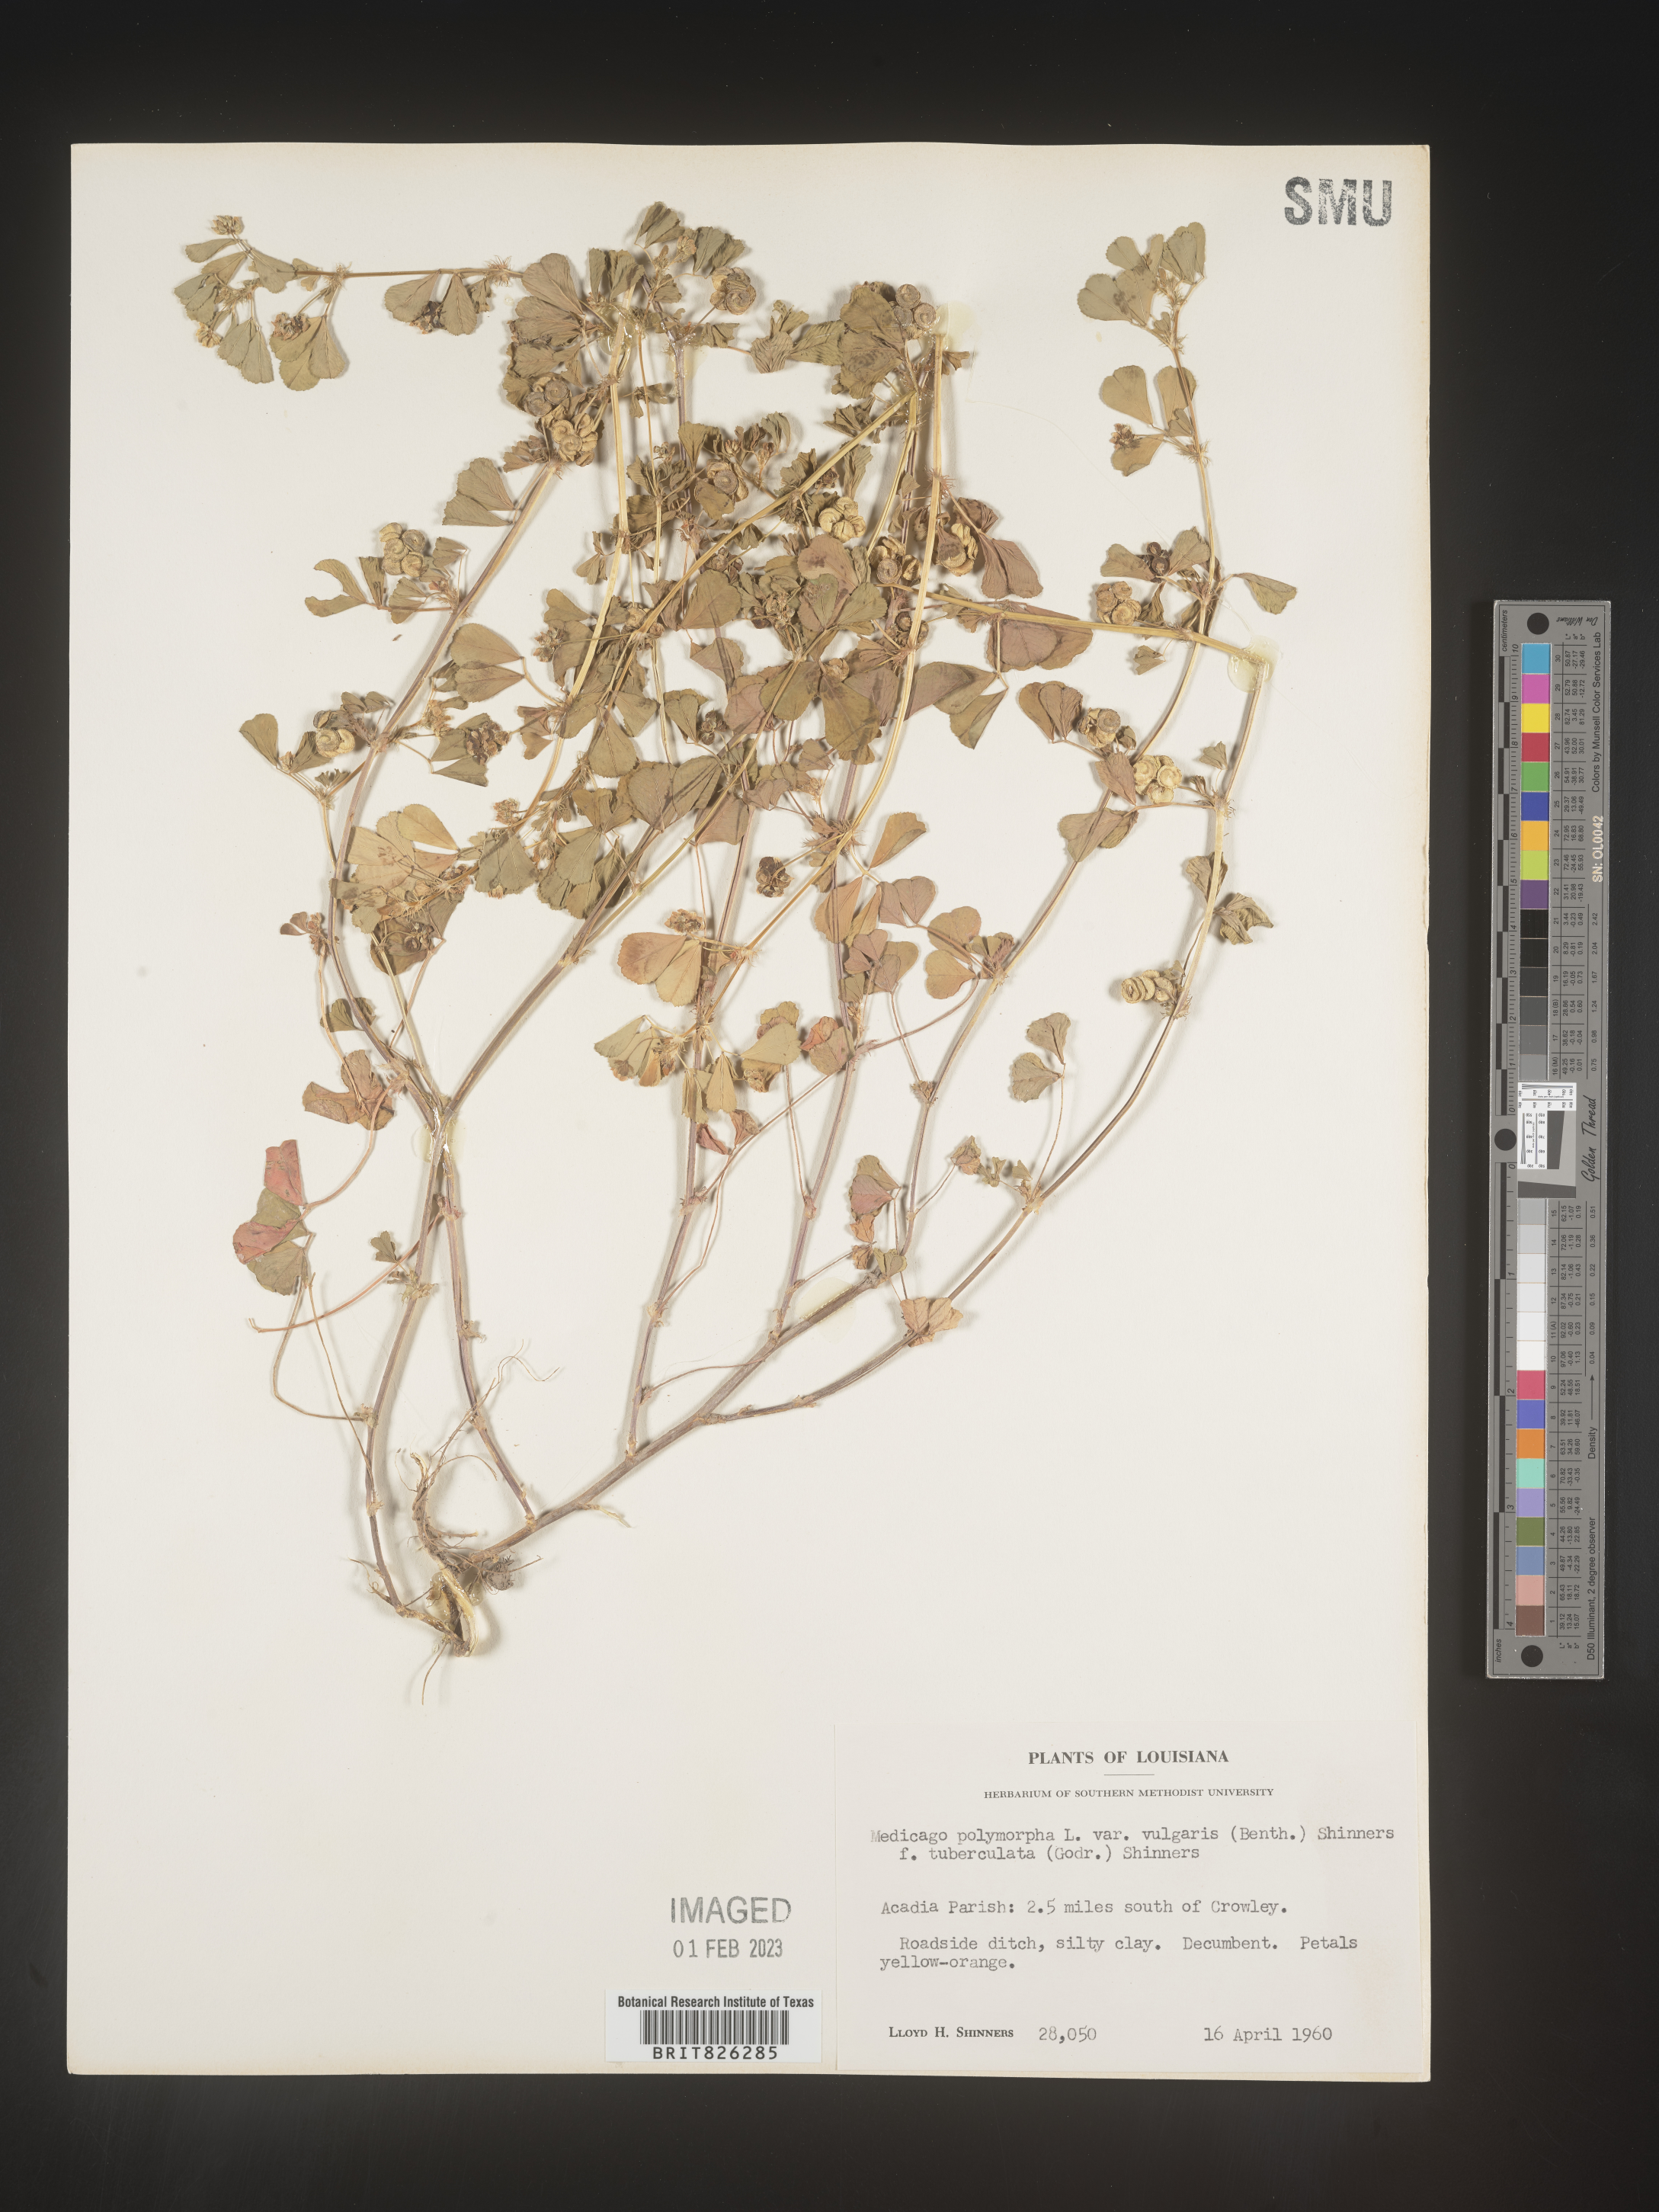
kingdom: Plantae
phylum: Tracheophyta
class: Magnoliopsida
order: Fabales
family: Fabaceae
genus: Medicago
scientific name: Medicago polymorpha
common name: Burclover
